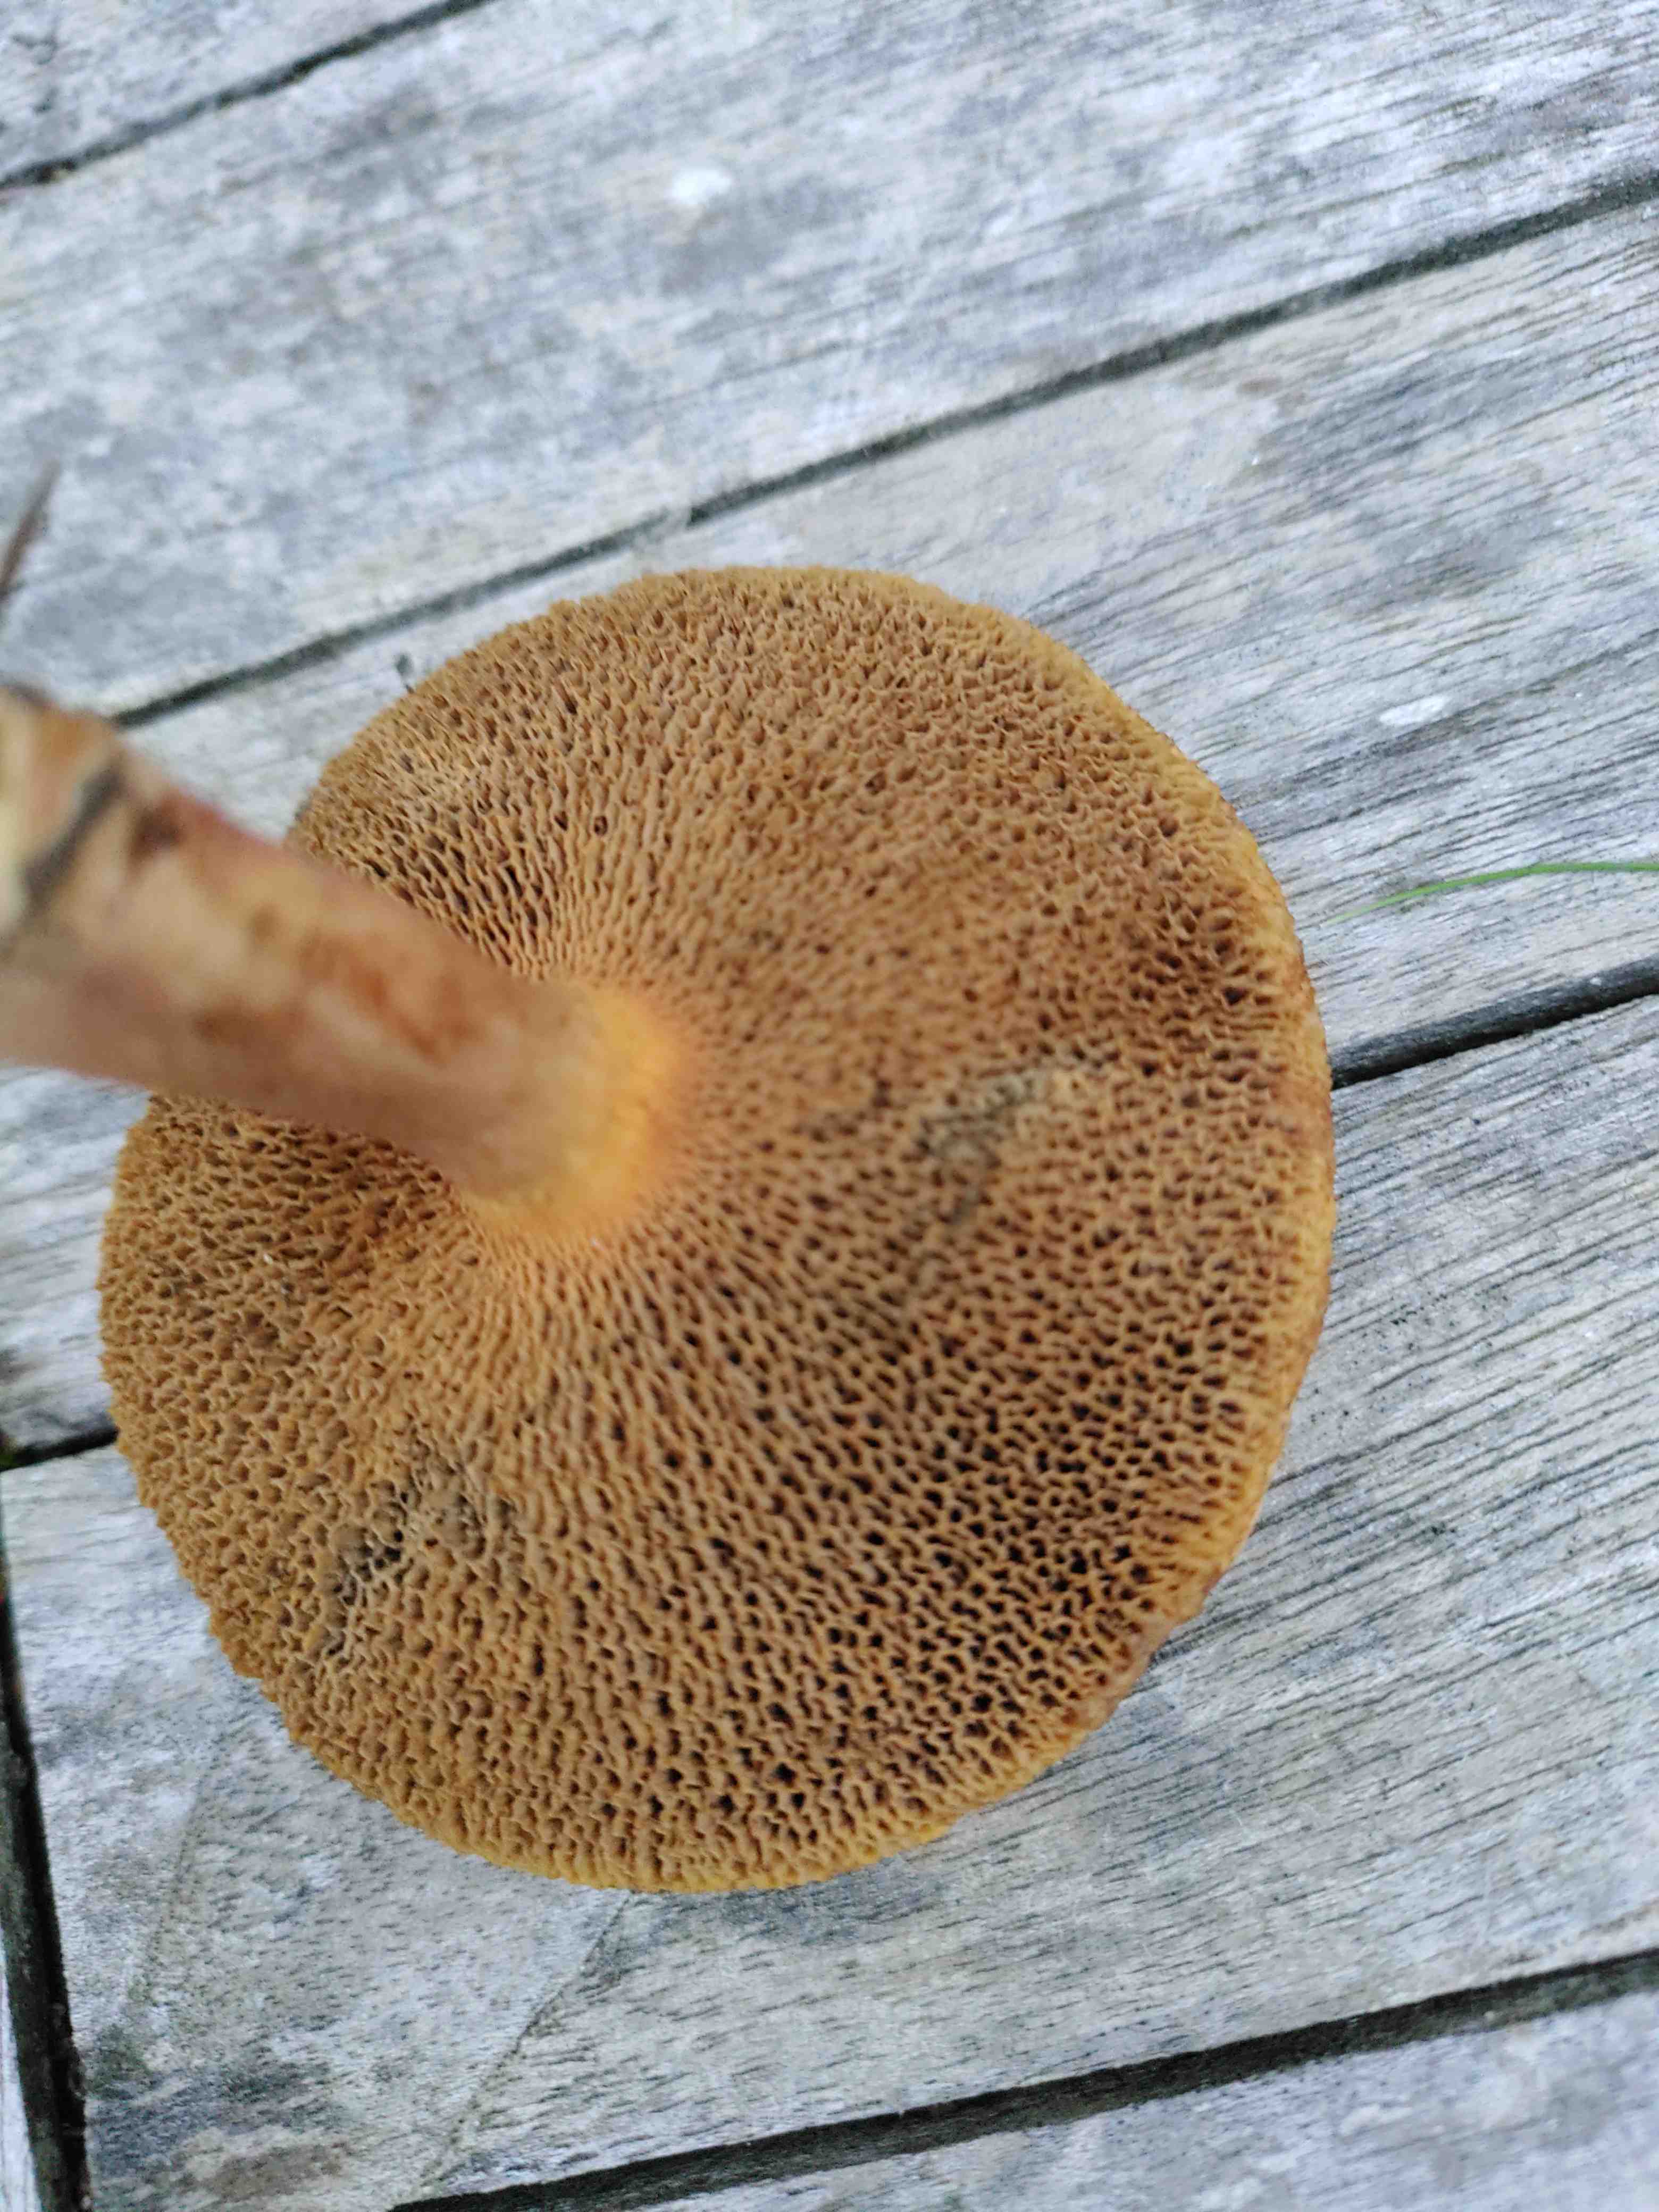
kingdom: Fungi
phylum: Basidiomycota
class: Agaricomycetes
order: Boletales
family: Boletaceae
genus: Chalciporus
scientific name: Chalciporus piperatus
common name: peberrørhat
